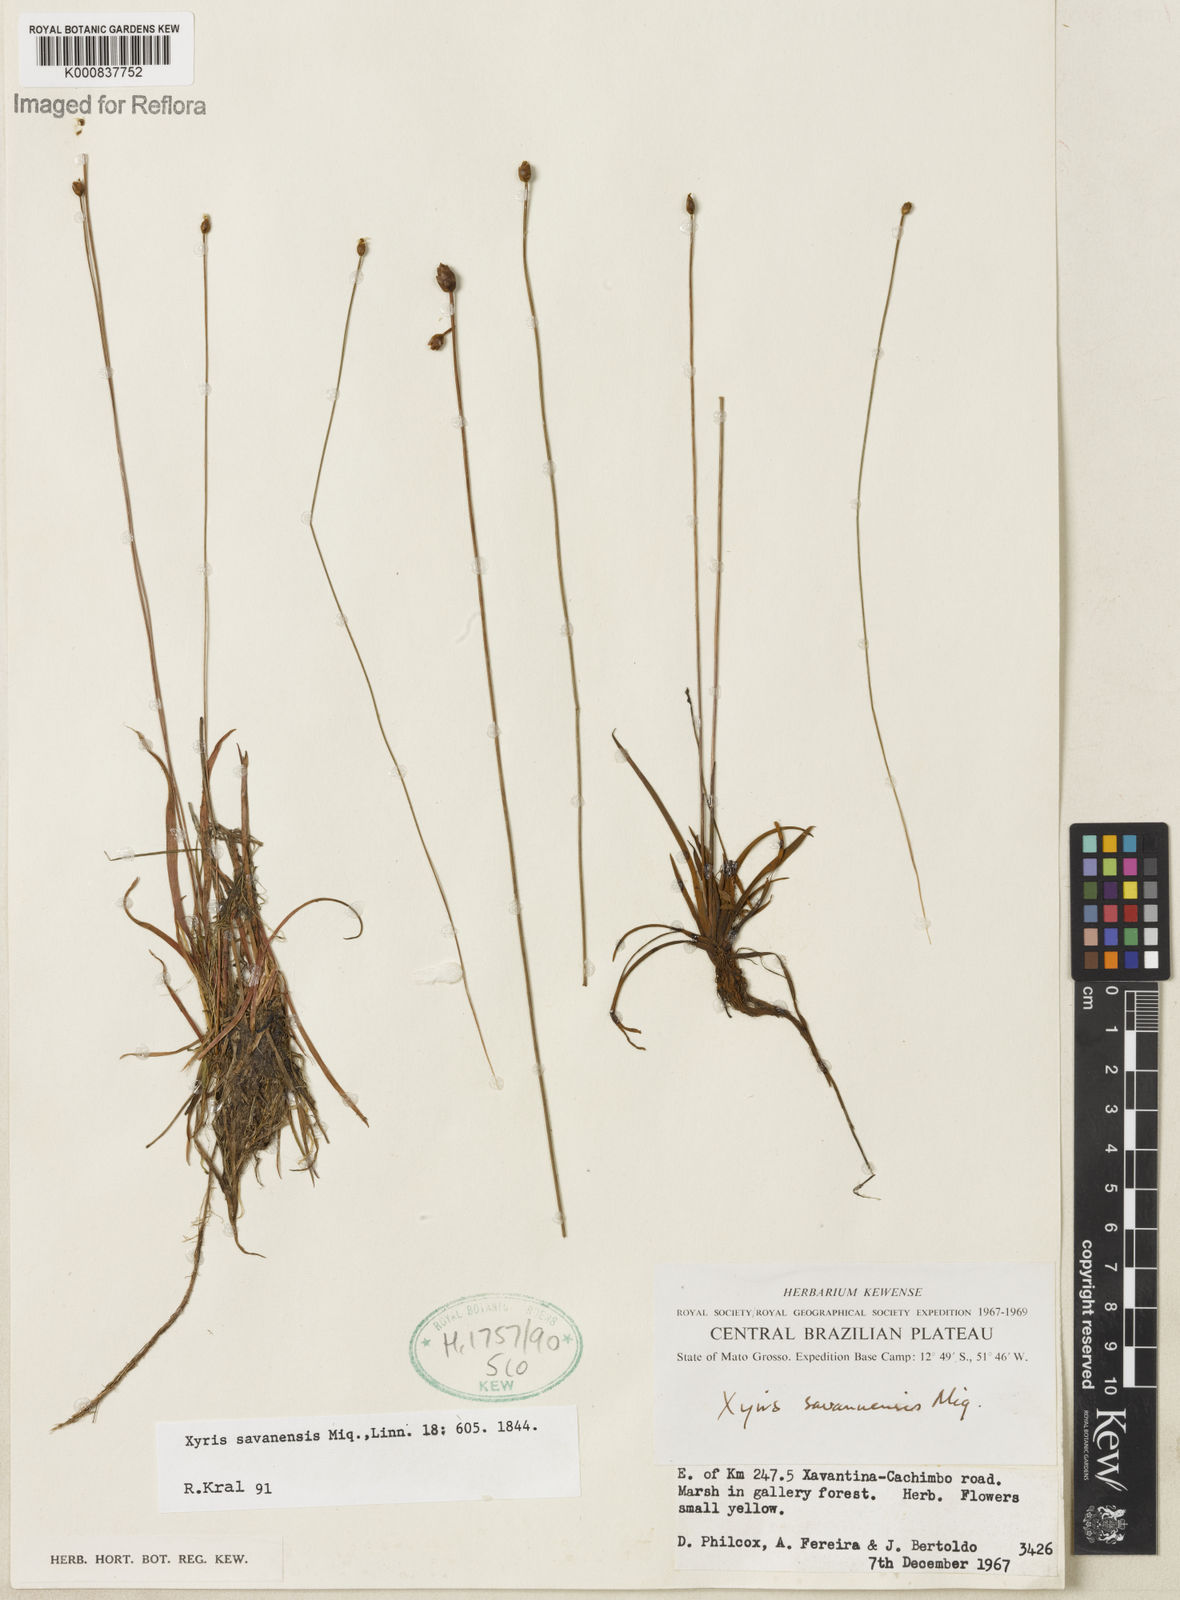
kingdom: Plantae
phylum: Tracheophyta
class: Liliopsida
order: Poales
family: Xyridaceae
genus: Xyris
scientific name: Xyris savanensis
